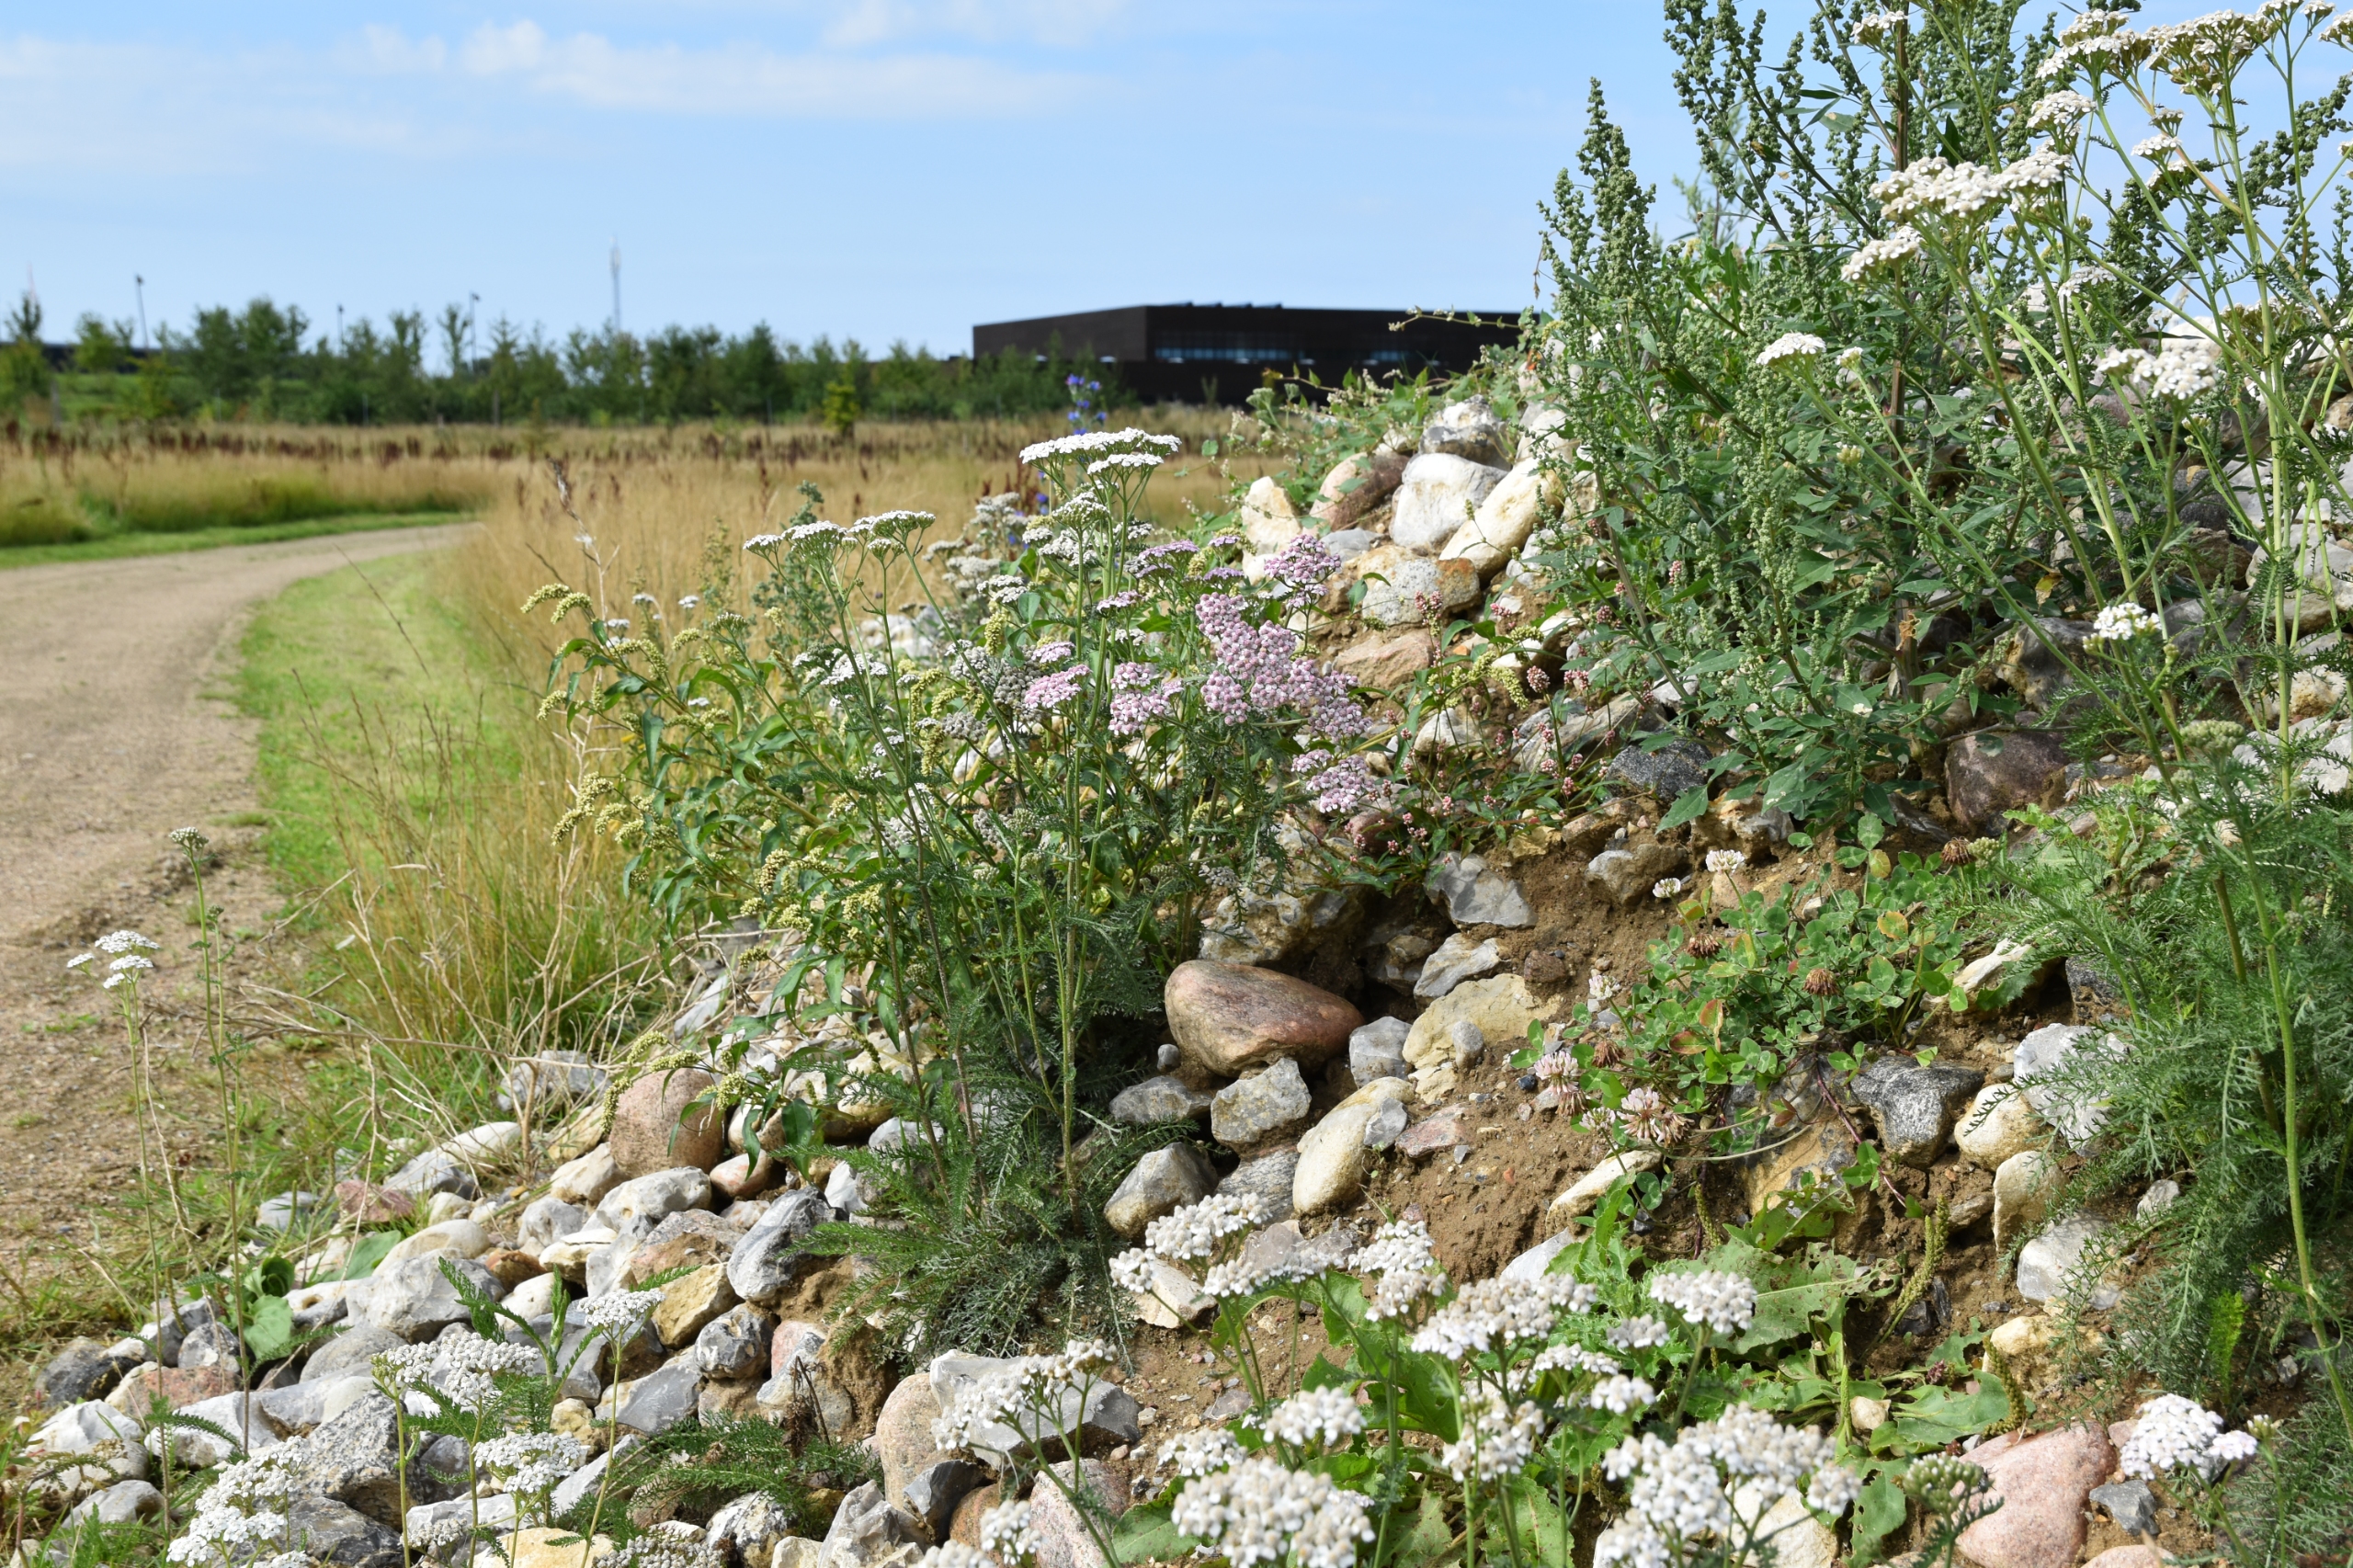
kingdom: Plantae
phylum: Tracheophyta
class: Magnoliopsida
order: Asterales
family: Asteraceae
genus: Achillea
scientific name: Achillea millefolium
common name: Almindelig røllike
